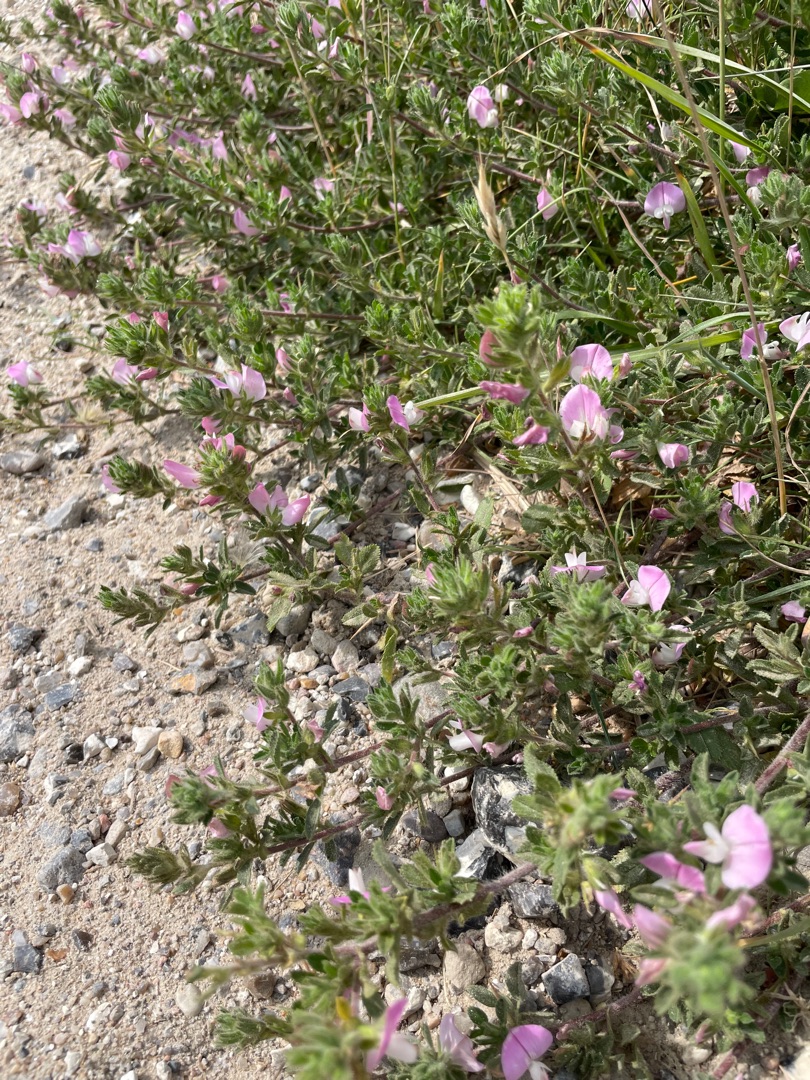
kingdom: Plantae
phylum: Tracheophyta
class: Magnoliopsida
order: Fabales
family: Fabaceae
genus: Ononis
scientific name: Ononis spinosa
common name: Mark-krageklo
